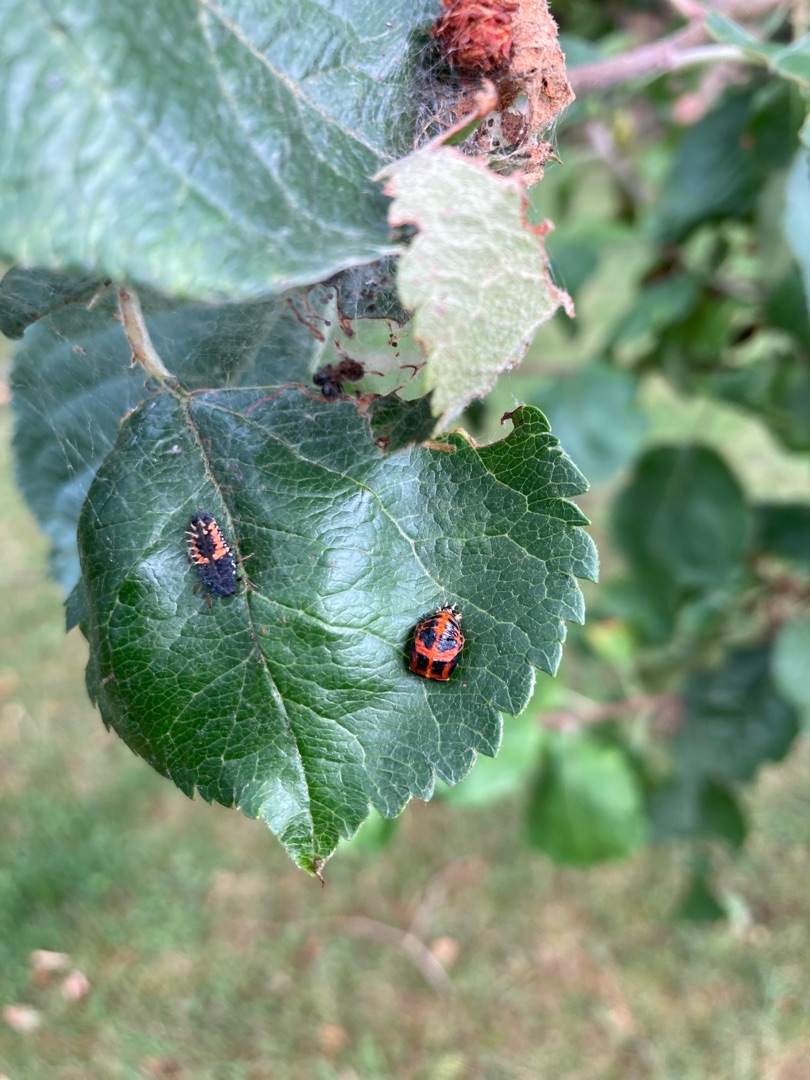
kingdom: Animalia
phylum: Arthropoda
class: Insecta
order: Coleoptera
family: Coccinellidae
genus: Harmonia
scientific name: Harmonia axyridis
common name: Harlekinmariehøne
